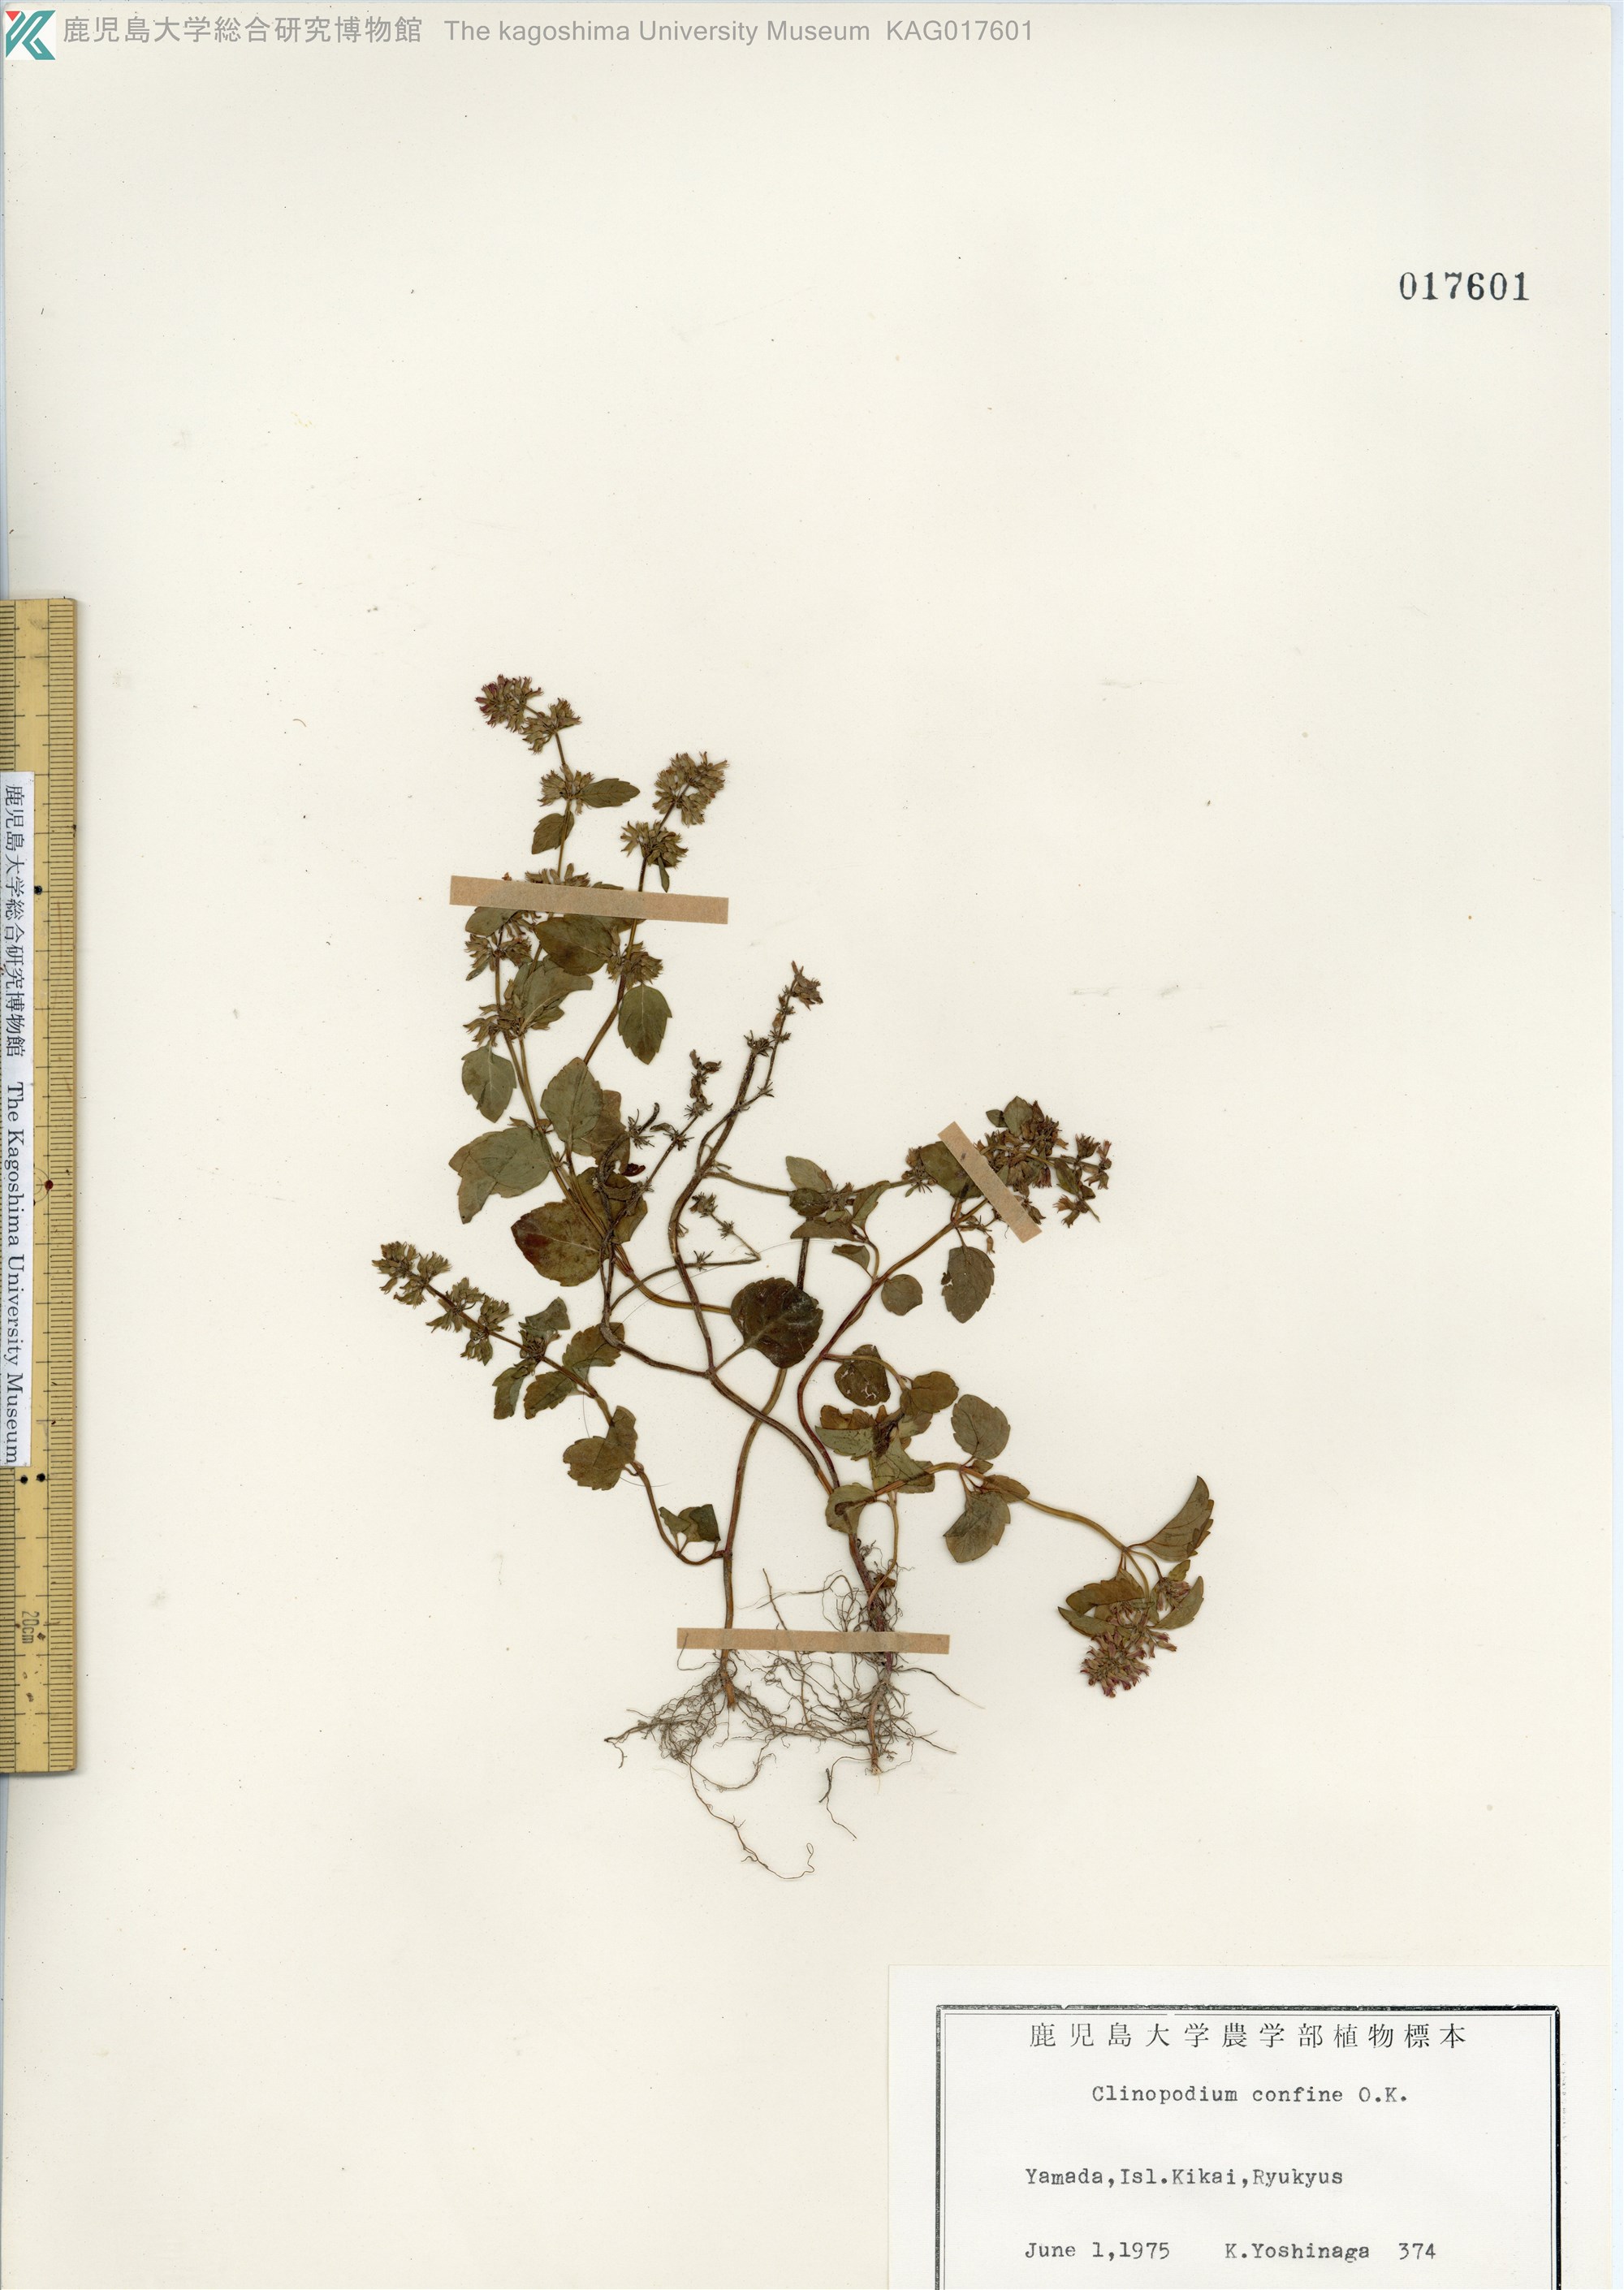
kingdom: Plantae
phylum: Tracheophyta
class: Magnoliopsida
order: Lamiales
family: Lamiaceae
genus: Clinopodium
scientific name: Clinopodium gracile
